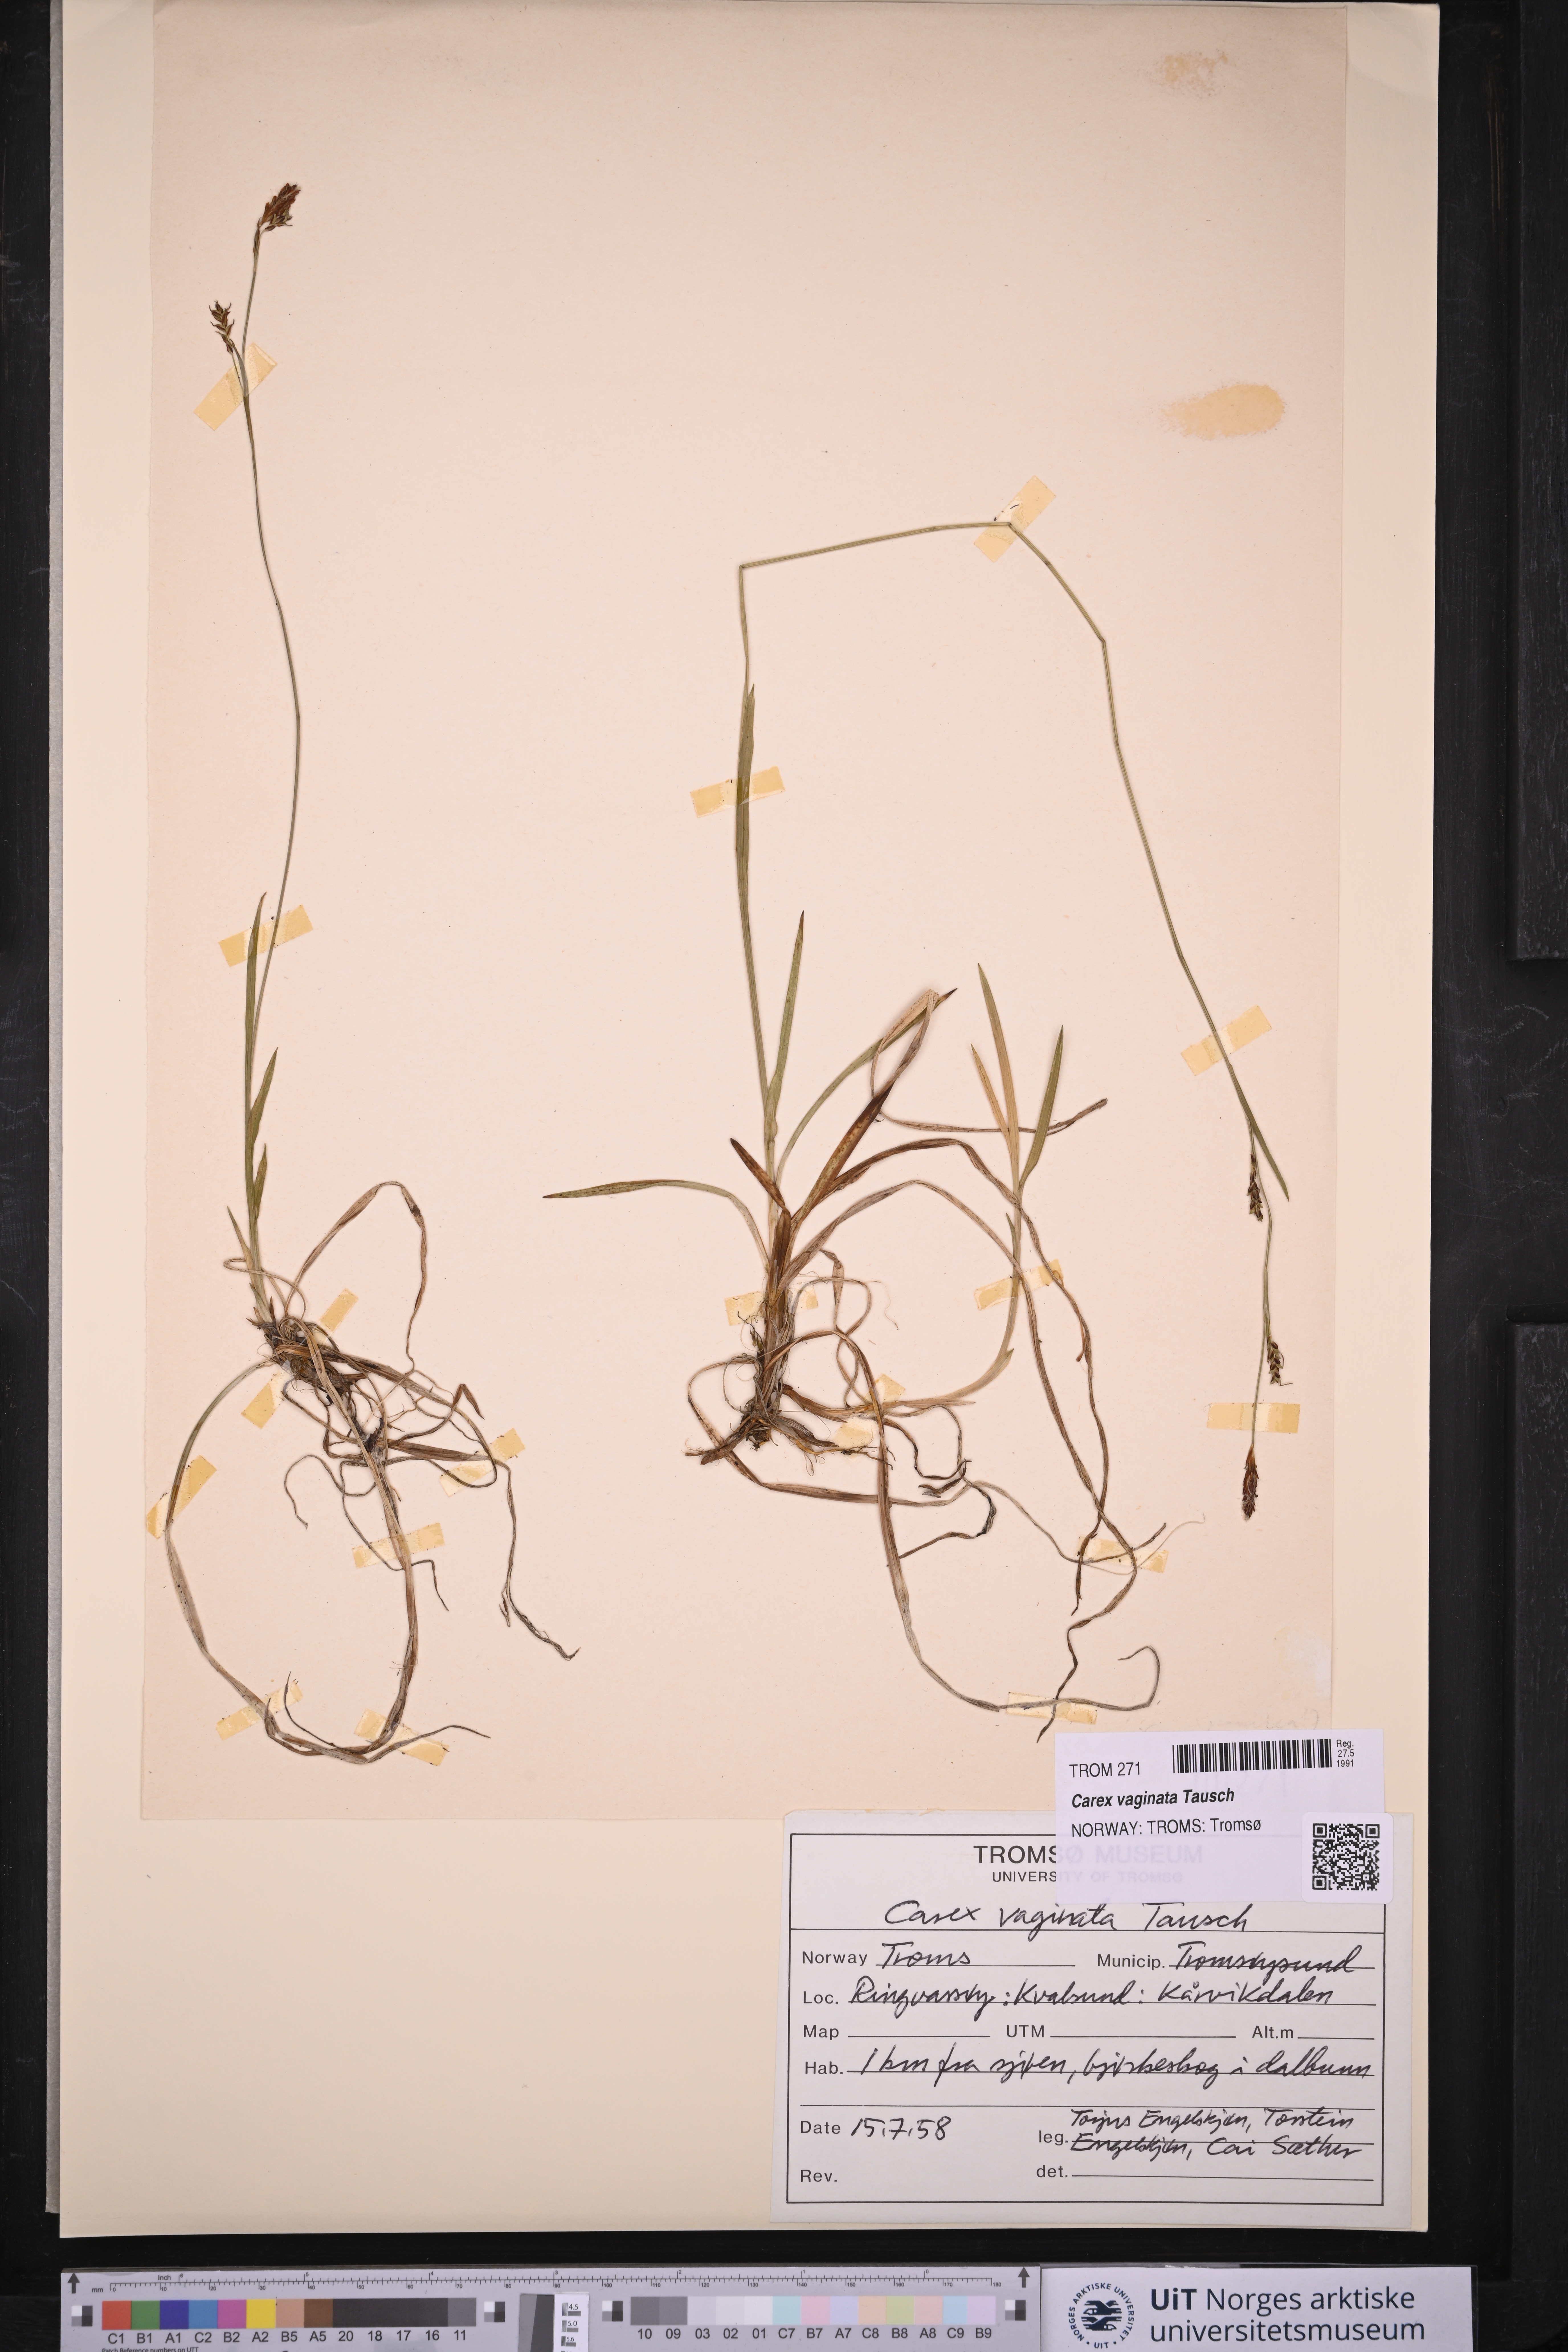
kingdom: Plantae
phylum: Tracheophyta
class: Liliopsida
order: Poales
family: Cyperaceae
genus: Carex
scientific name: Carex vaginata
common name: Sheathed sedge
